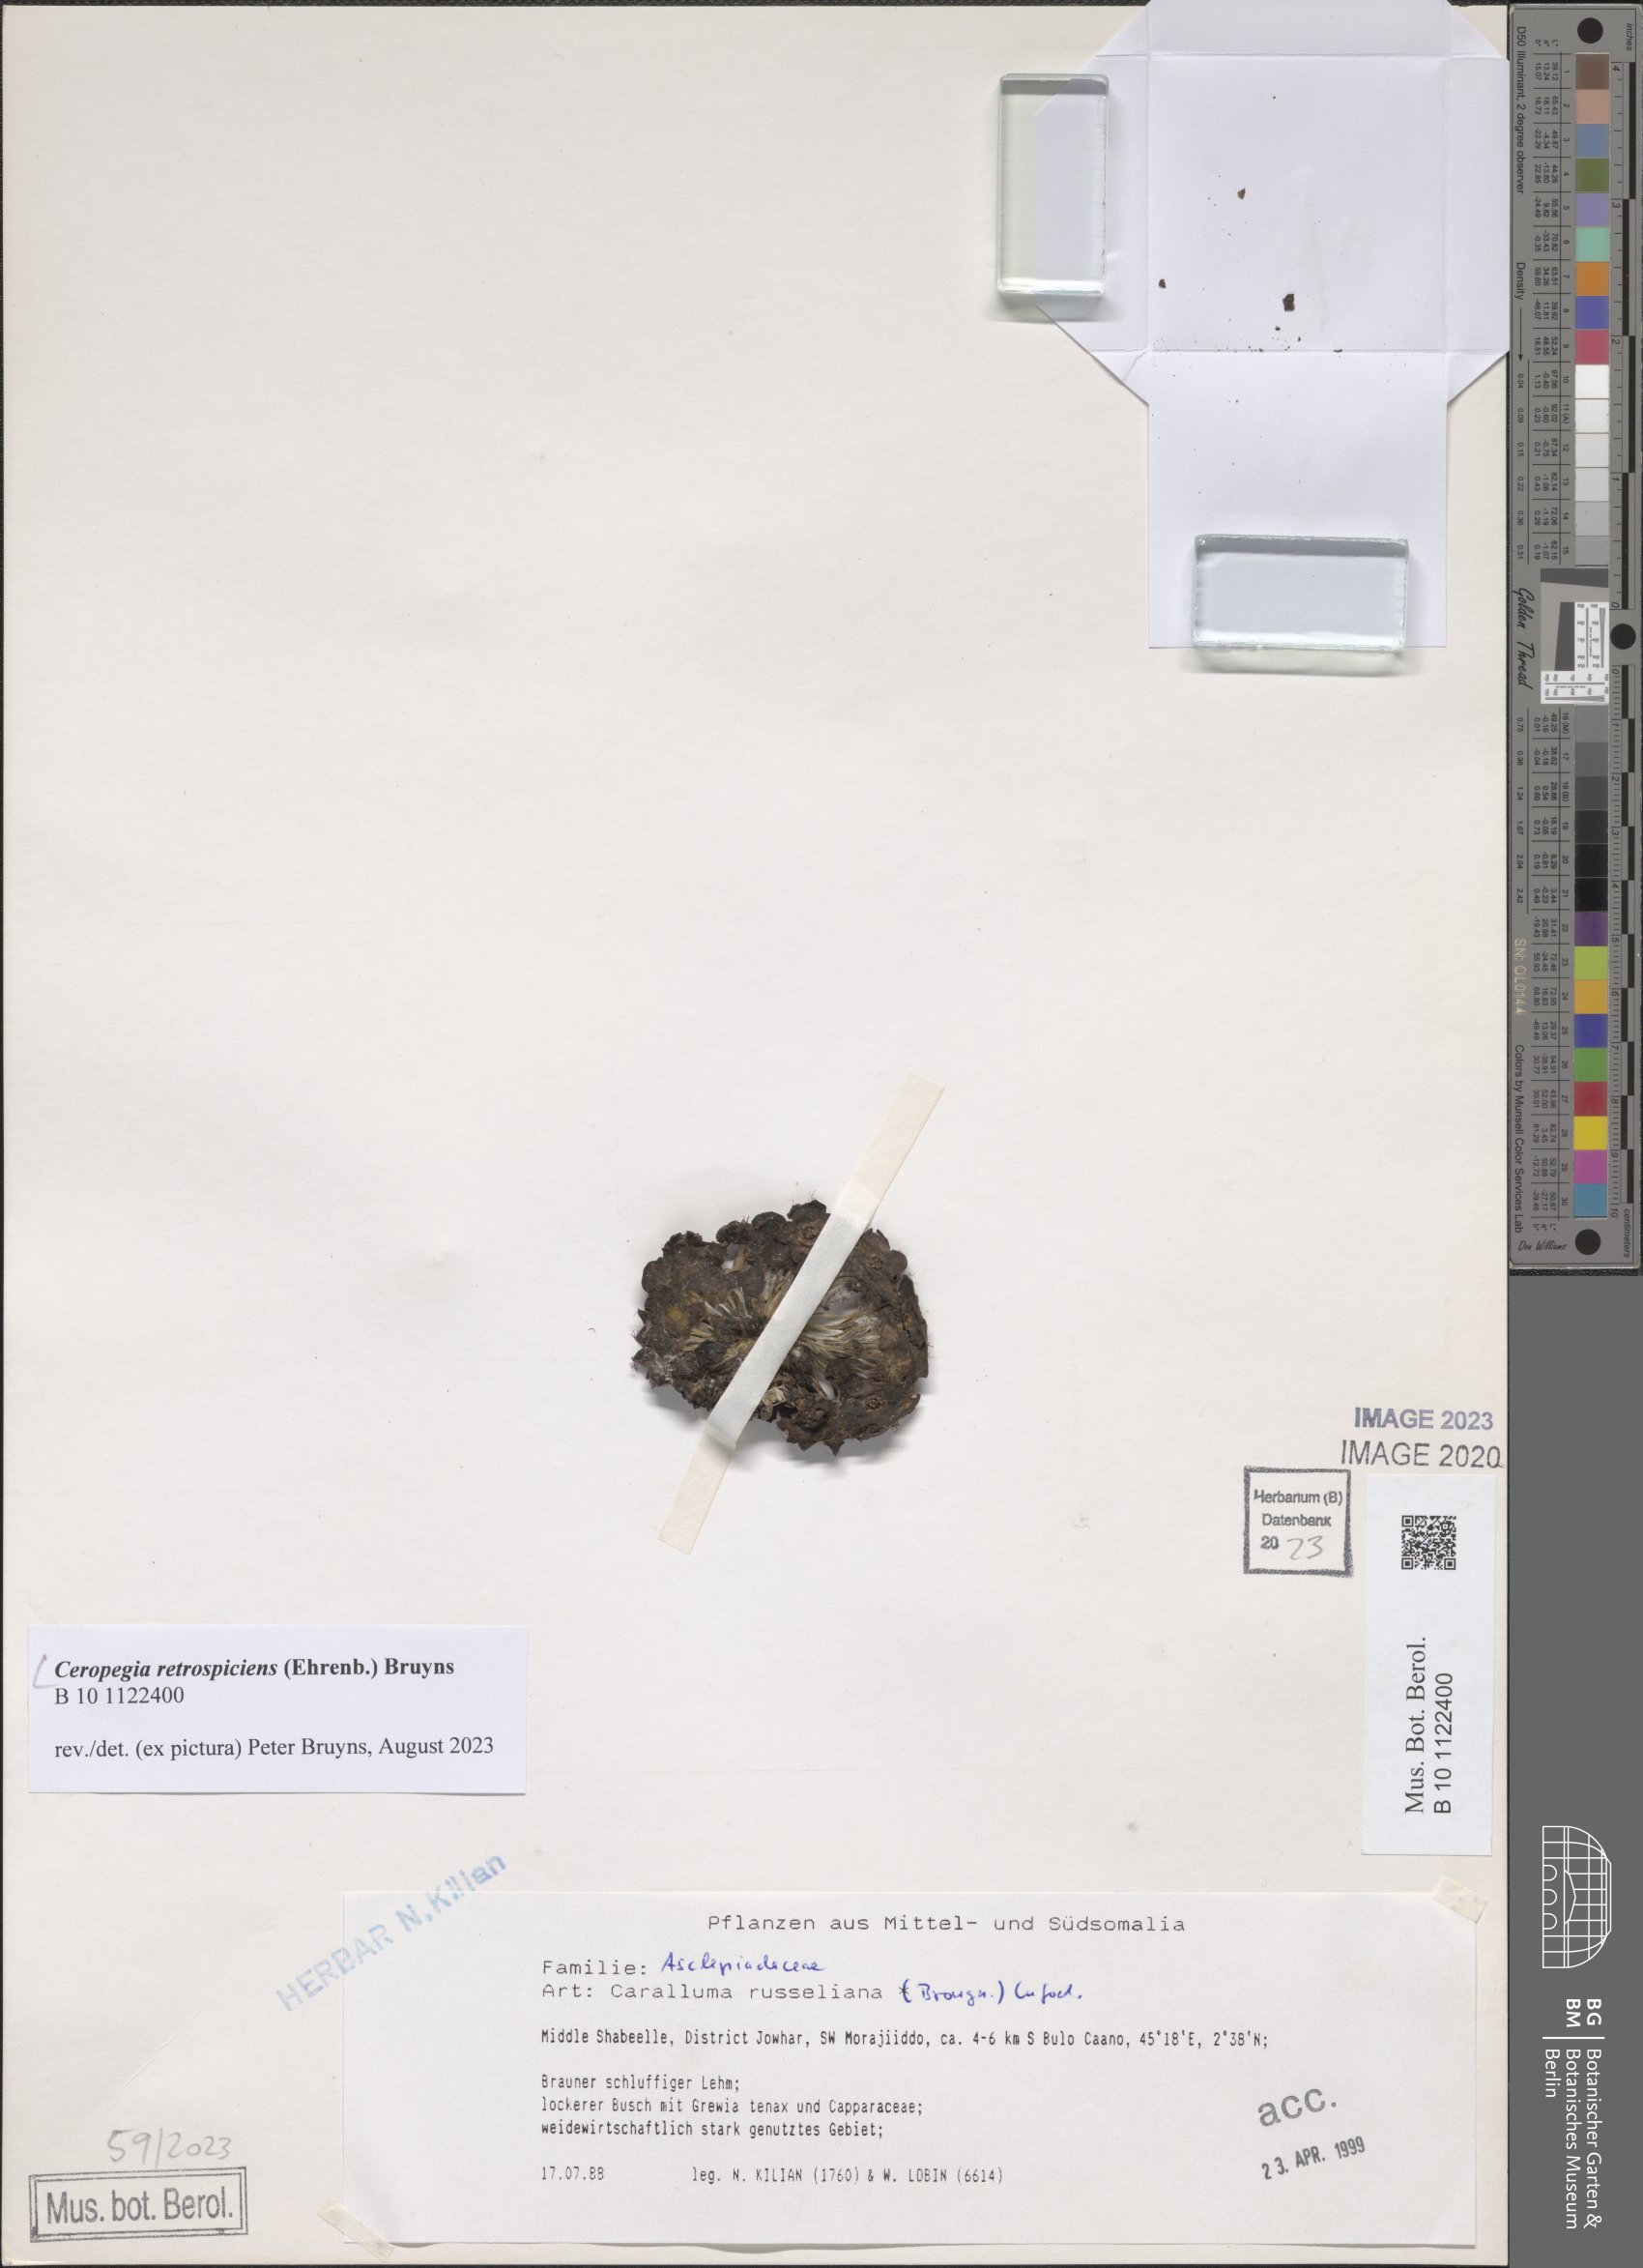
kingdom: Plantae
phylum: Tracheophyta
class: Magnoliopsida
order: Gentianales
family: Apocynaceae
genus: Ceropegia
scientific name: Ceropegia retrospiciens
